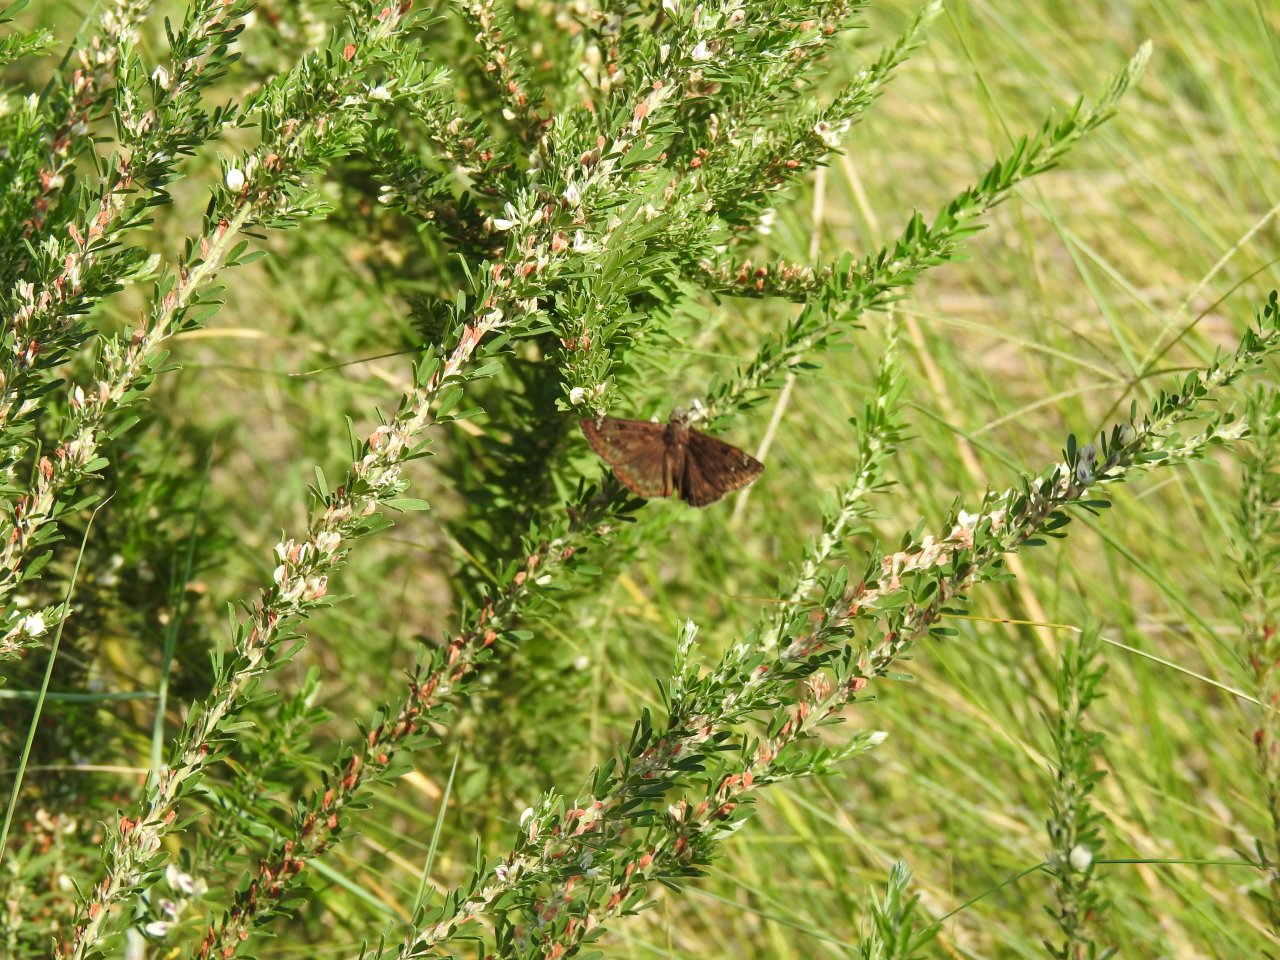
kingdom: Animalia
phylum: Arthropoda
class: Insecta
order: Lepidoptera
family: Hesperiidae
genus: Erynnis
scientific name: Erynnis
